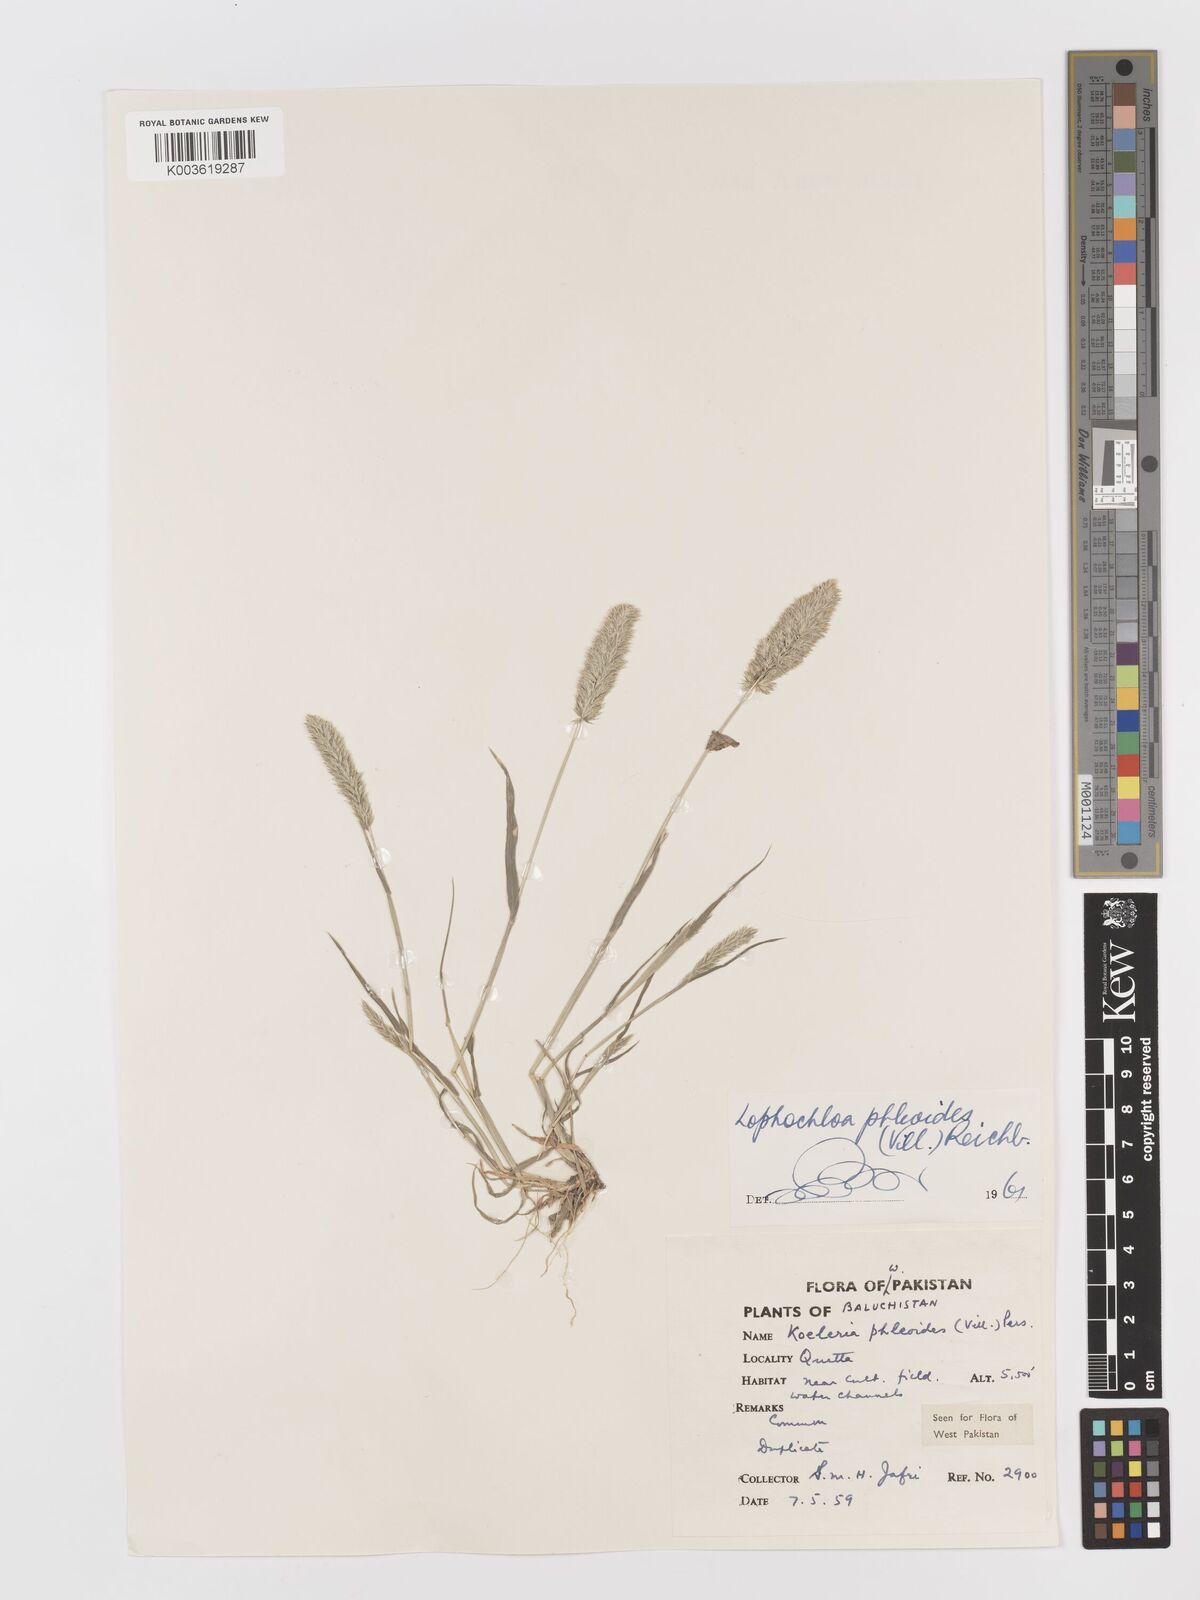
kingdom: Plantae
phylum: Tracheophyta
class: Liliopsida
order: Poales
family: Poaceae
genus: Rostraria
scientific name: Rostraria cristata
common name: Mediterranean hair-grass
